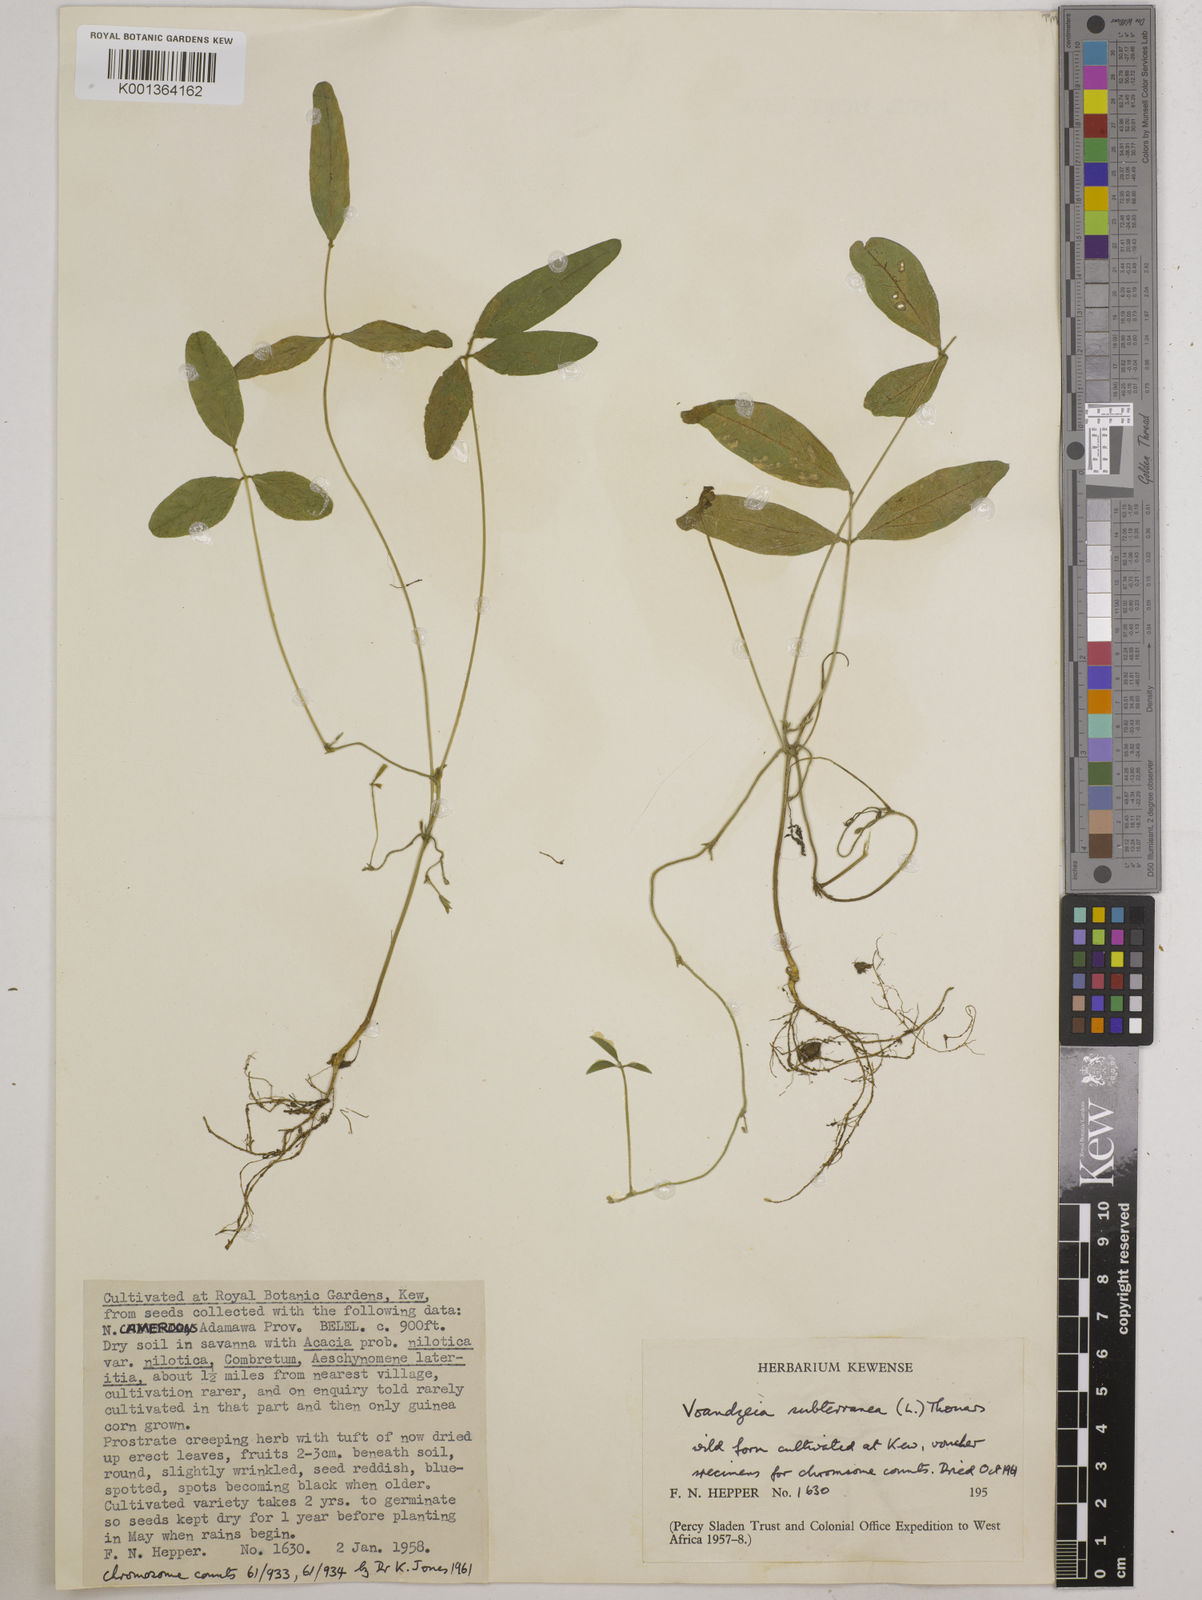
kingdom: Plantae
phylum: Tracheophyta
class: Magnoliopsida
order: Fabales
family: Fabaceae
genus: Vigna
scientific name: Vigna subterranea
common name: Bambara groundnut
